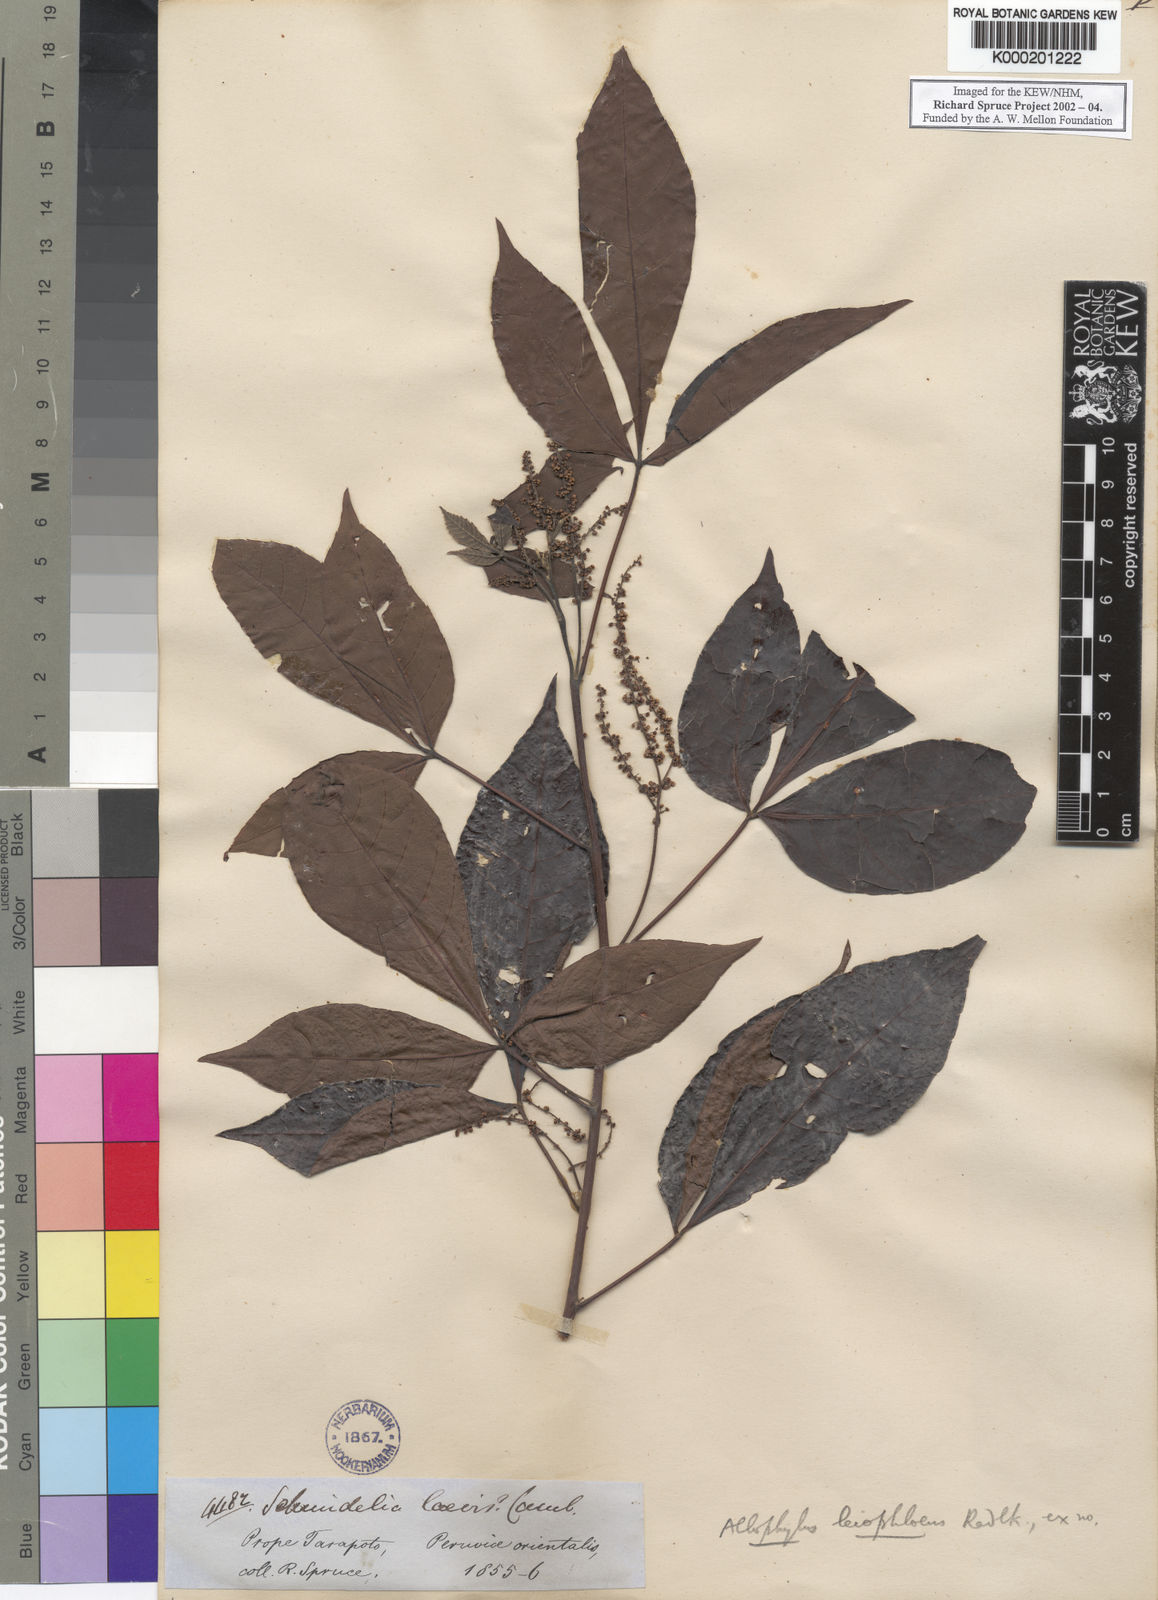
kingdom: Plantae
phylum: Tracheophyta
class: Magnoliopsida
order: Sapindales
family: Sapindaceae
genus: Allophylus
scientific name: Allophylus floribundus
